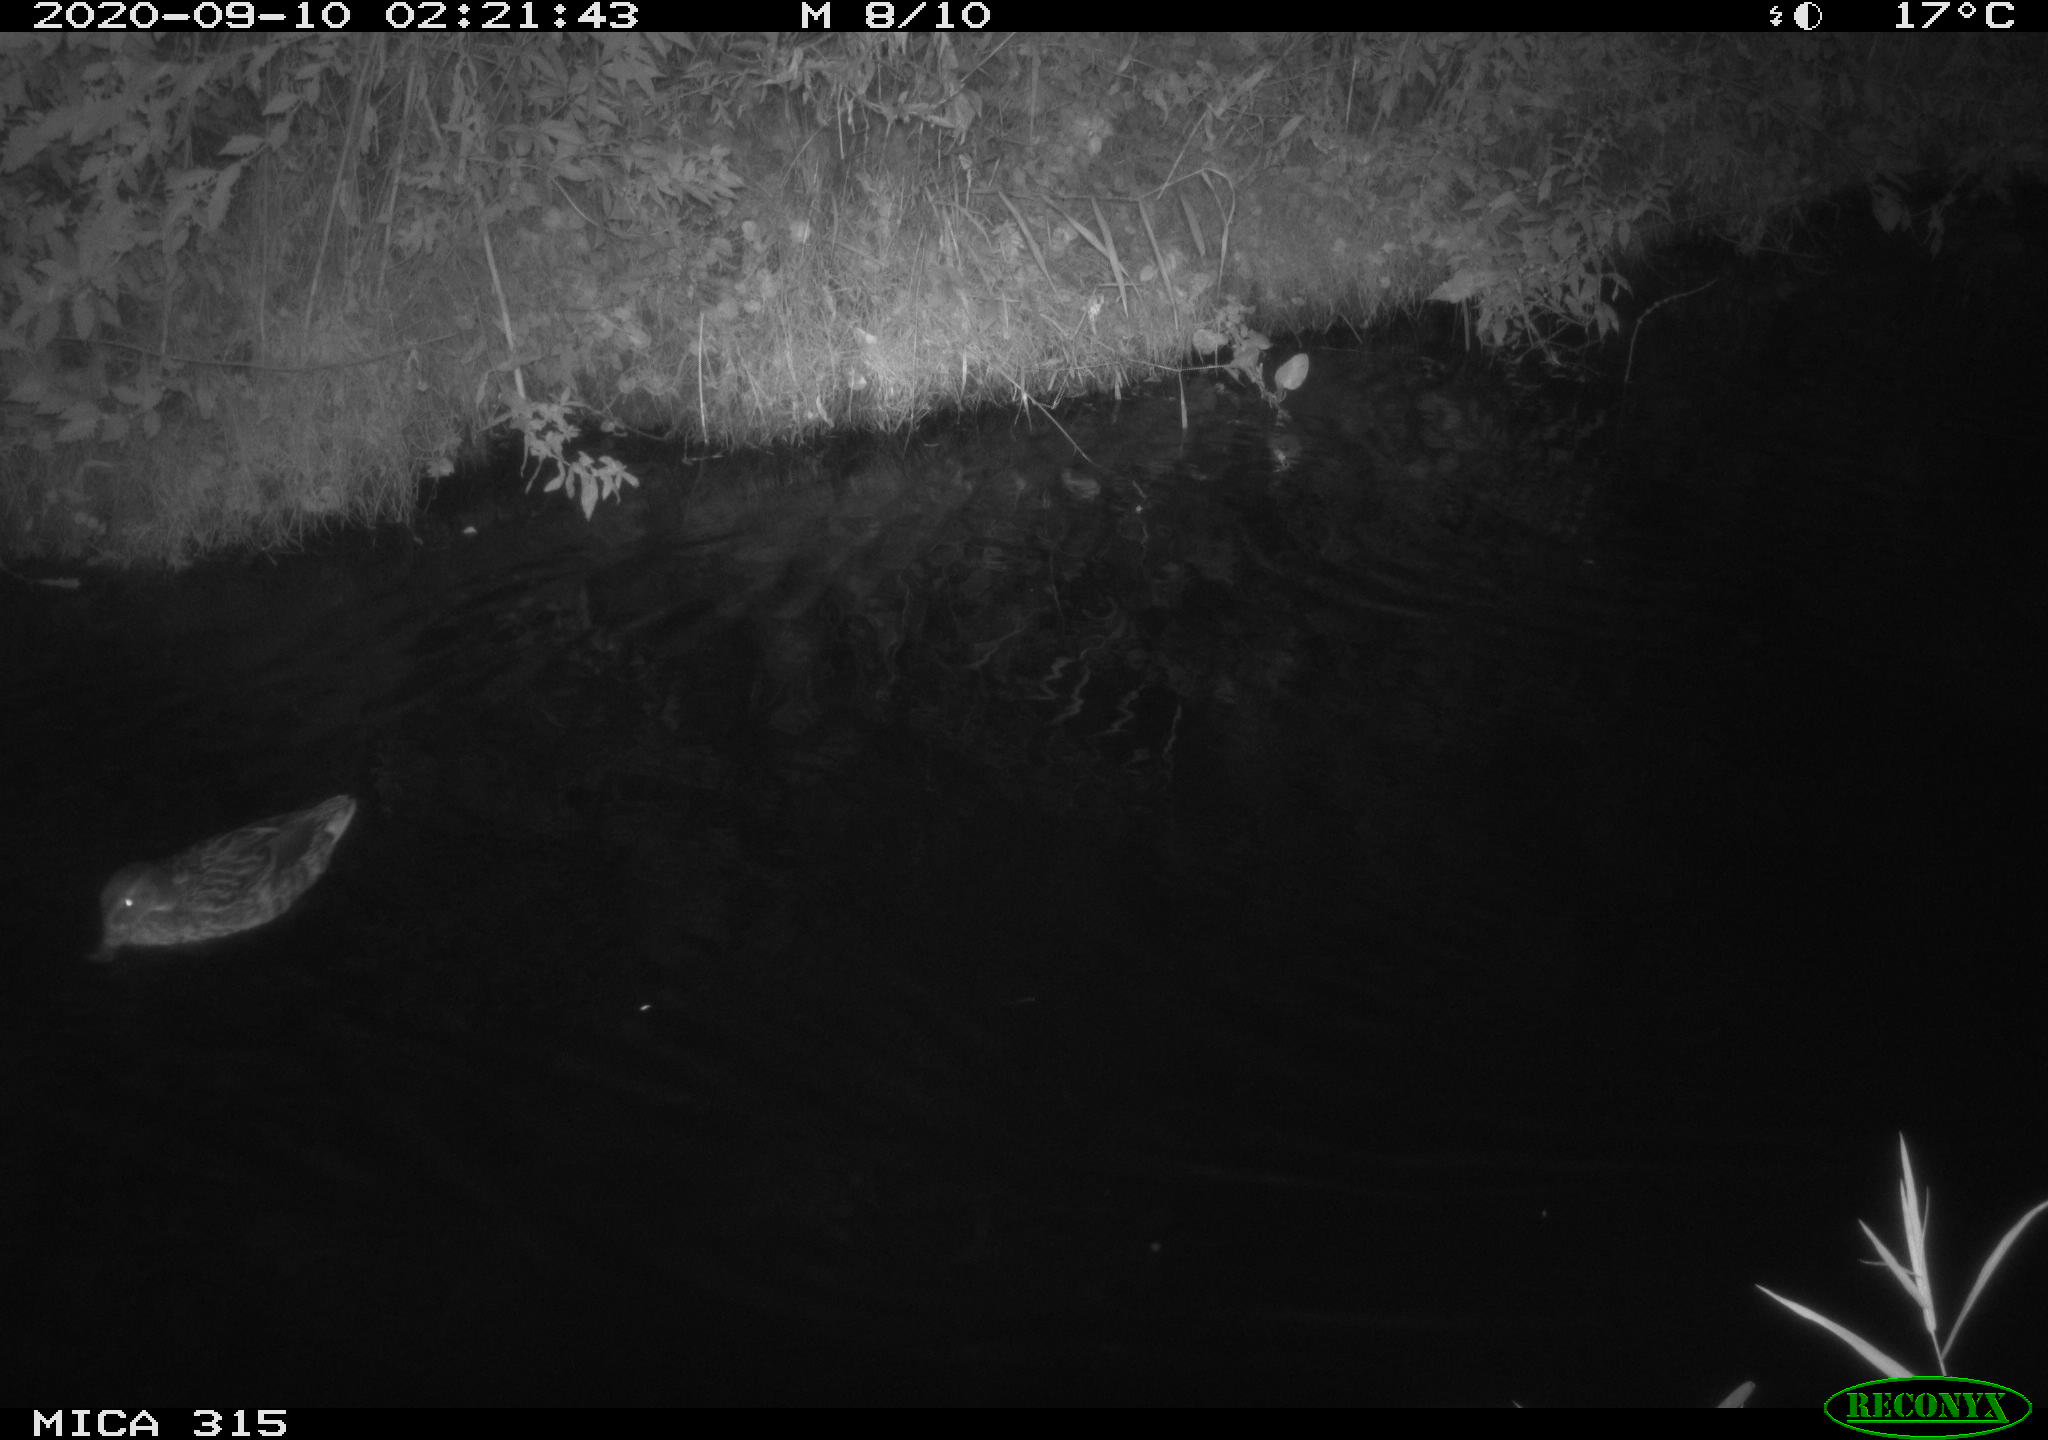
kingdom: Animalia
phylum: Chordata
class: Aves
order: Anseriformes
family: Anatidae
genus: Anas
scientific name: Anas platyrhynchos
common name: Mallard
